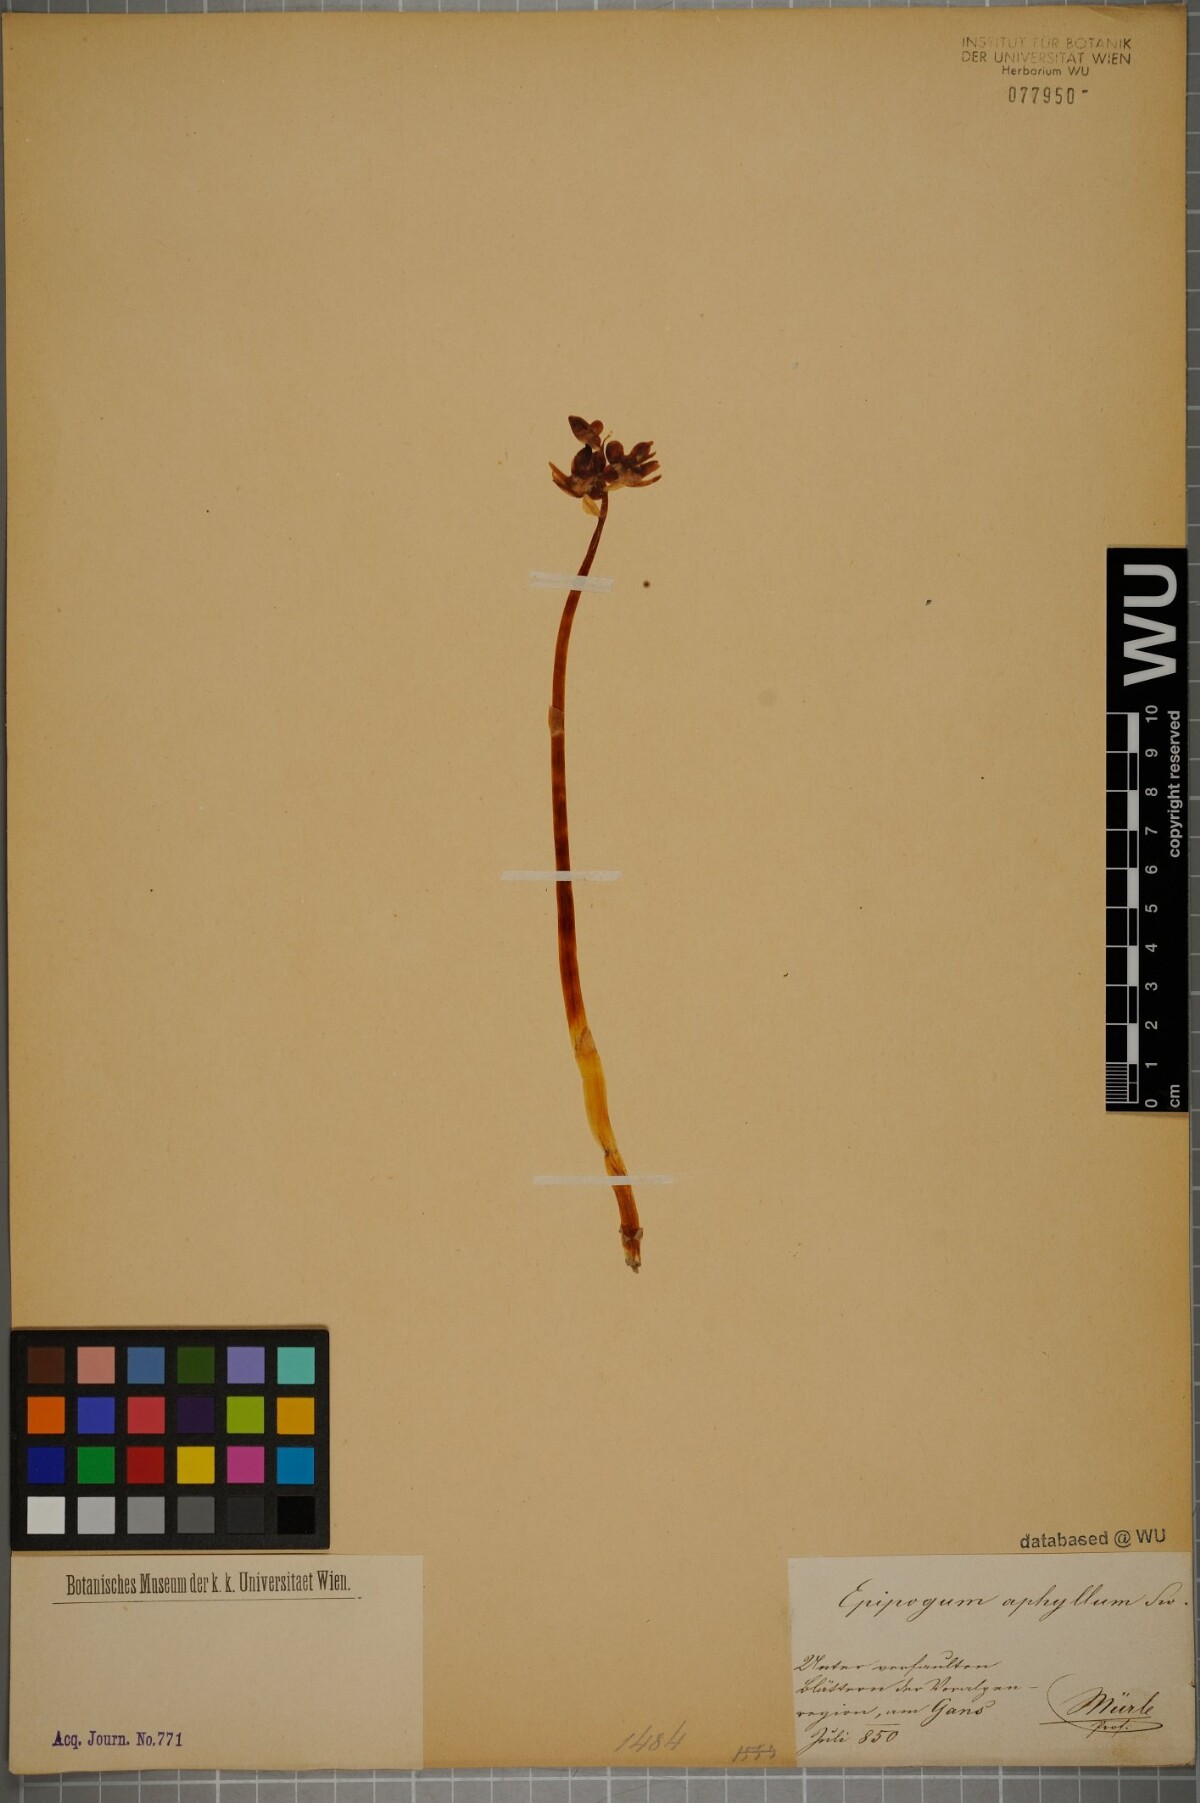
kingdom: Plantae
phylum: Tracheophyta
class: Liliopsida
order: Asparagales
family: Orchidaceae
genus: Epipogium
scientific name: Epipogium aphyllum
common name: Ghost orchid
